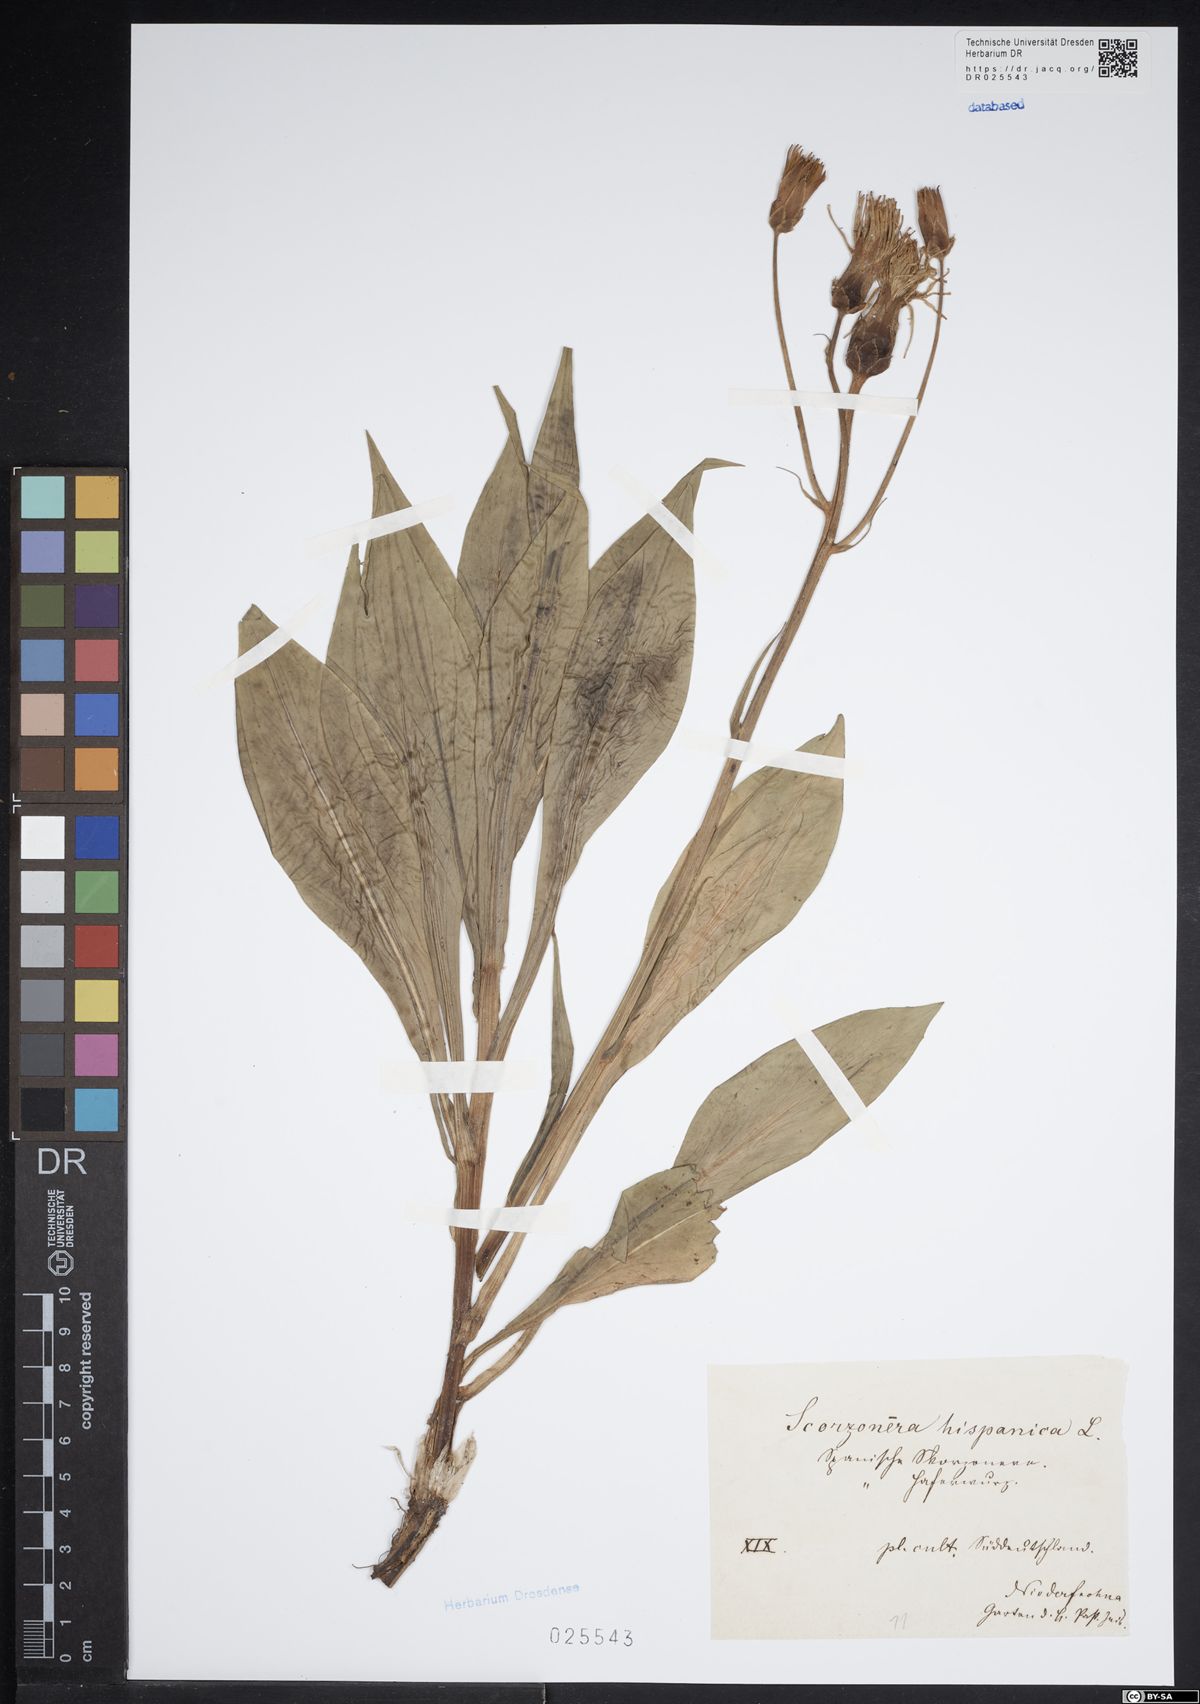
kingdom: Plantae
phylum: Tracheophyta
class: Magnoliopsida
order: Asterales
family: Asteraceae
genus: Pseudopodospermum
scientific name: Pseudopodospermum hispanicum
